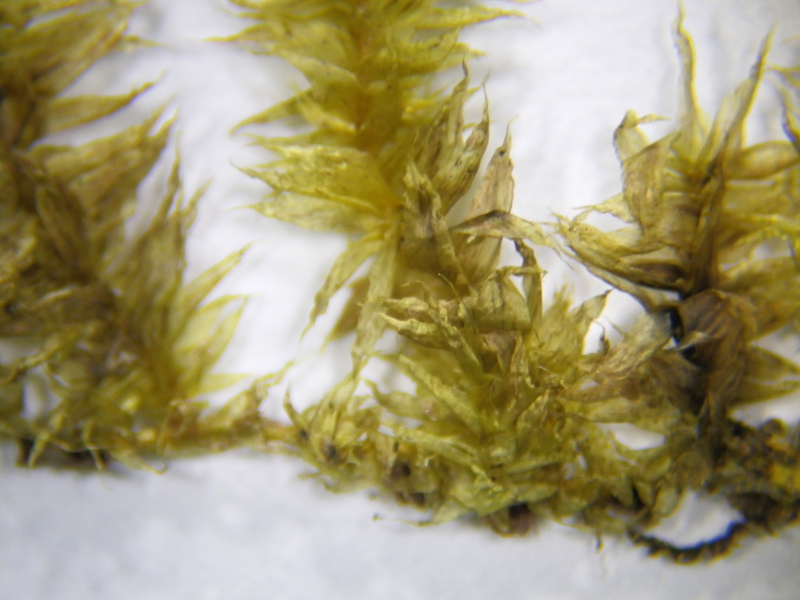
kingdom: Plantae
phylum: Bryophyta
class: Bryopsida
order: Hypnales
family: Meteoriaceae
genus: Pseudotrachypus
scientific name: Pseudotrachypus wallichii
